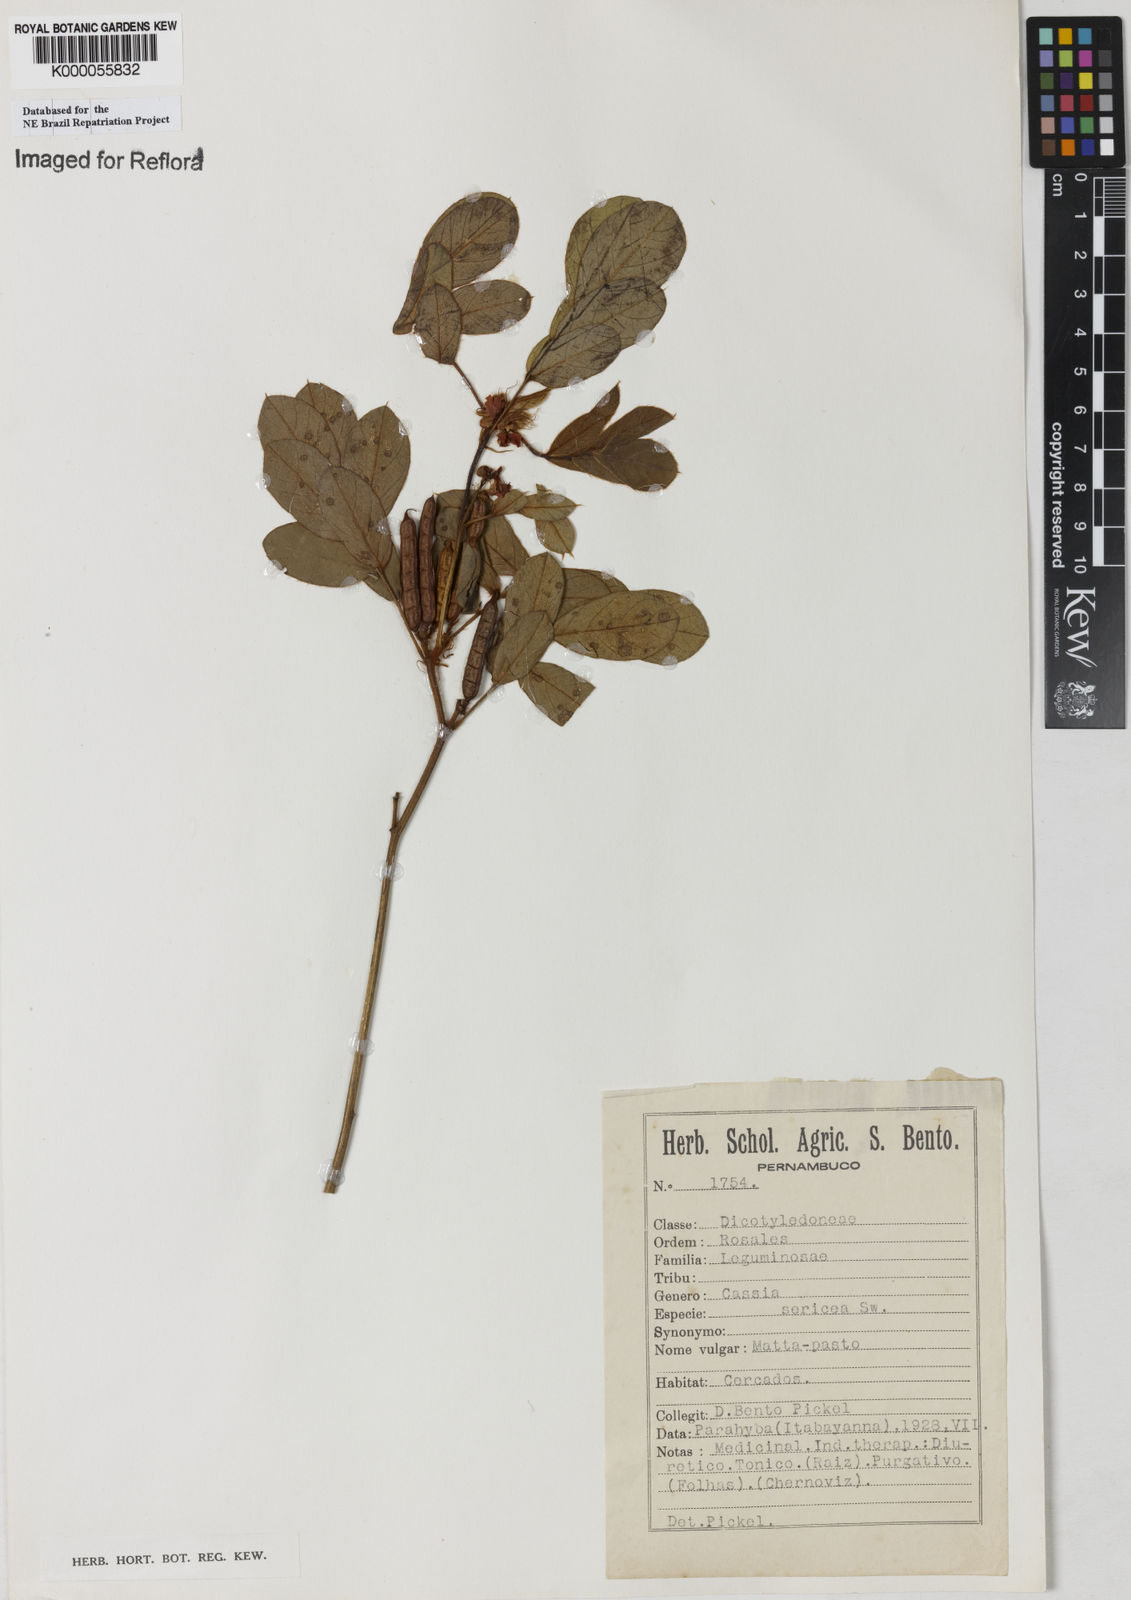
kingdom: Plantae
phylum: Tracheophyta
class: Magnoliopsida
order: Fabales
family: Fabaceae
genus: Senna
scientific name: Senna uniflora
